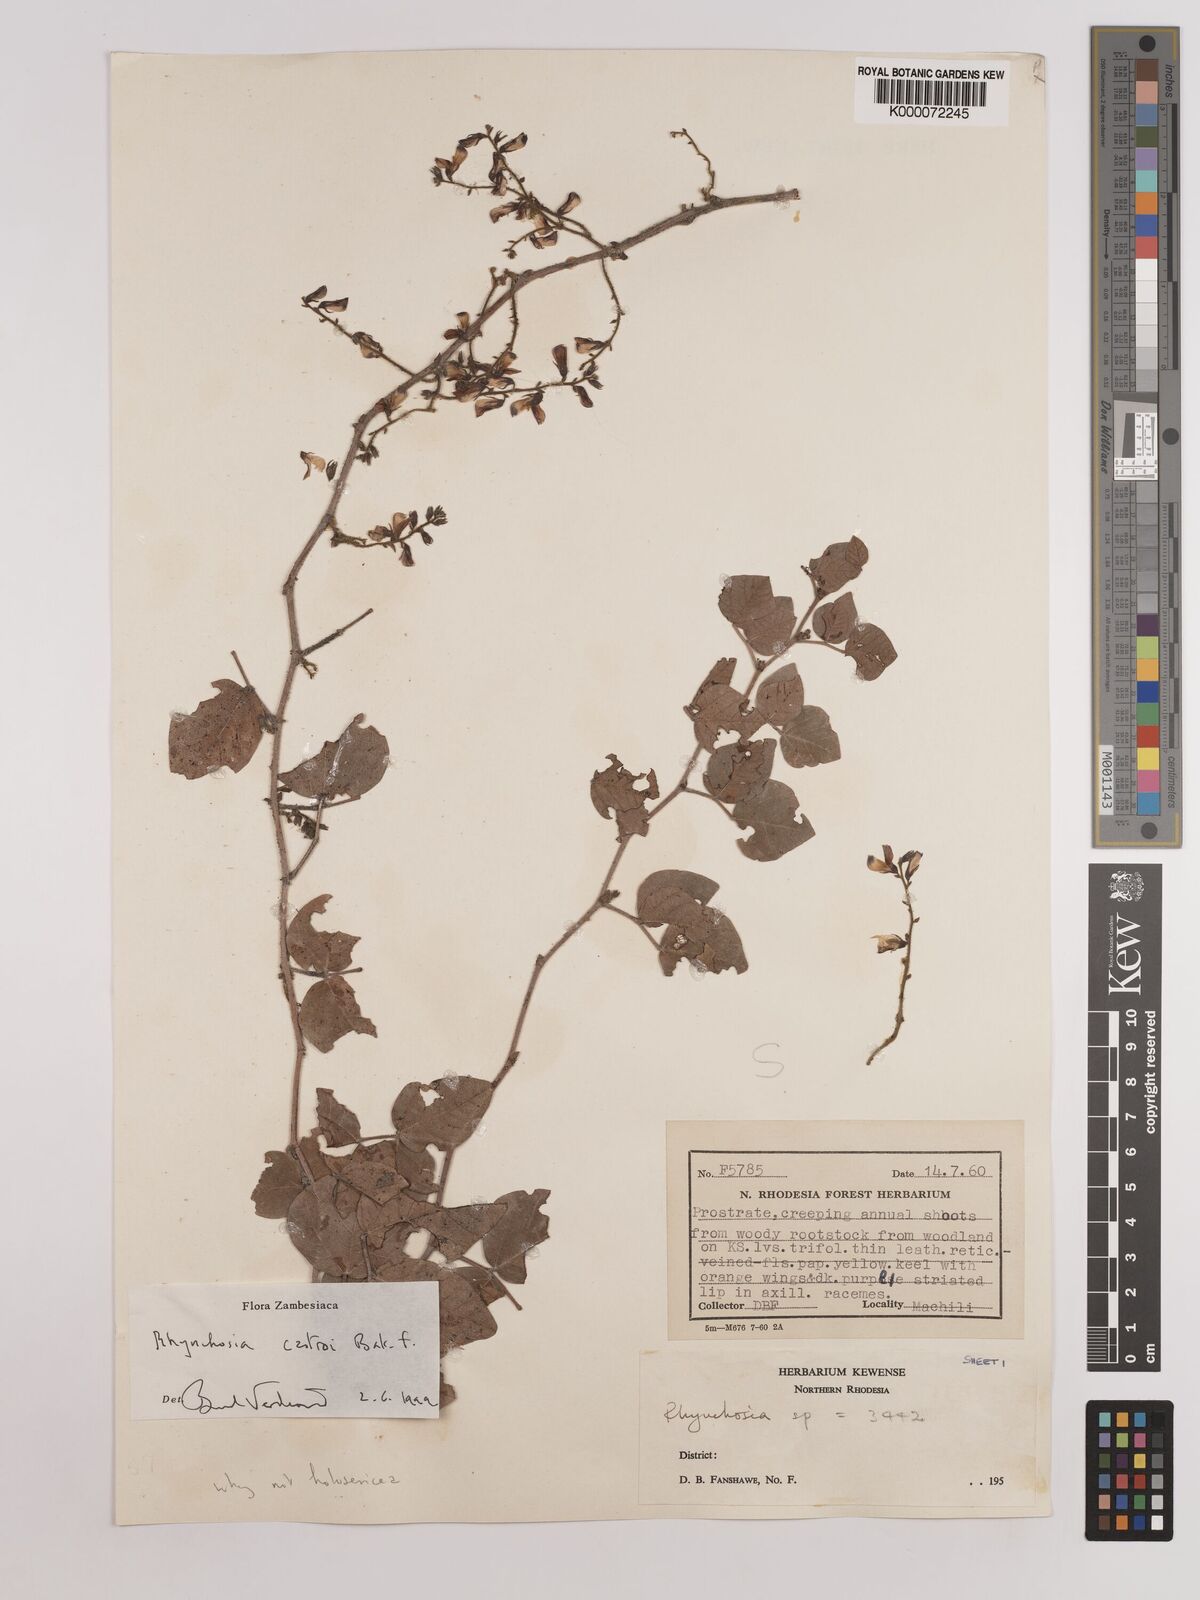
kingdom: Plantae
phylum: Tracheophyta
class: Magnoliopsida
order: Fabales
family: Fabaceae
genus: Rhynchosia
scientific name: Rhynchosia castroi
